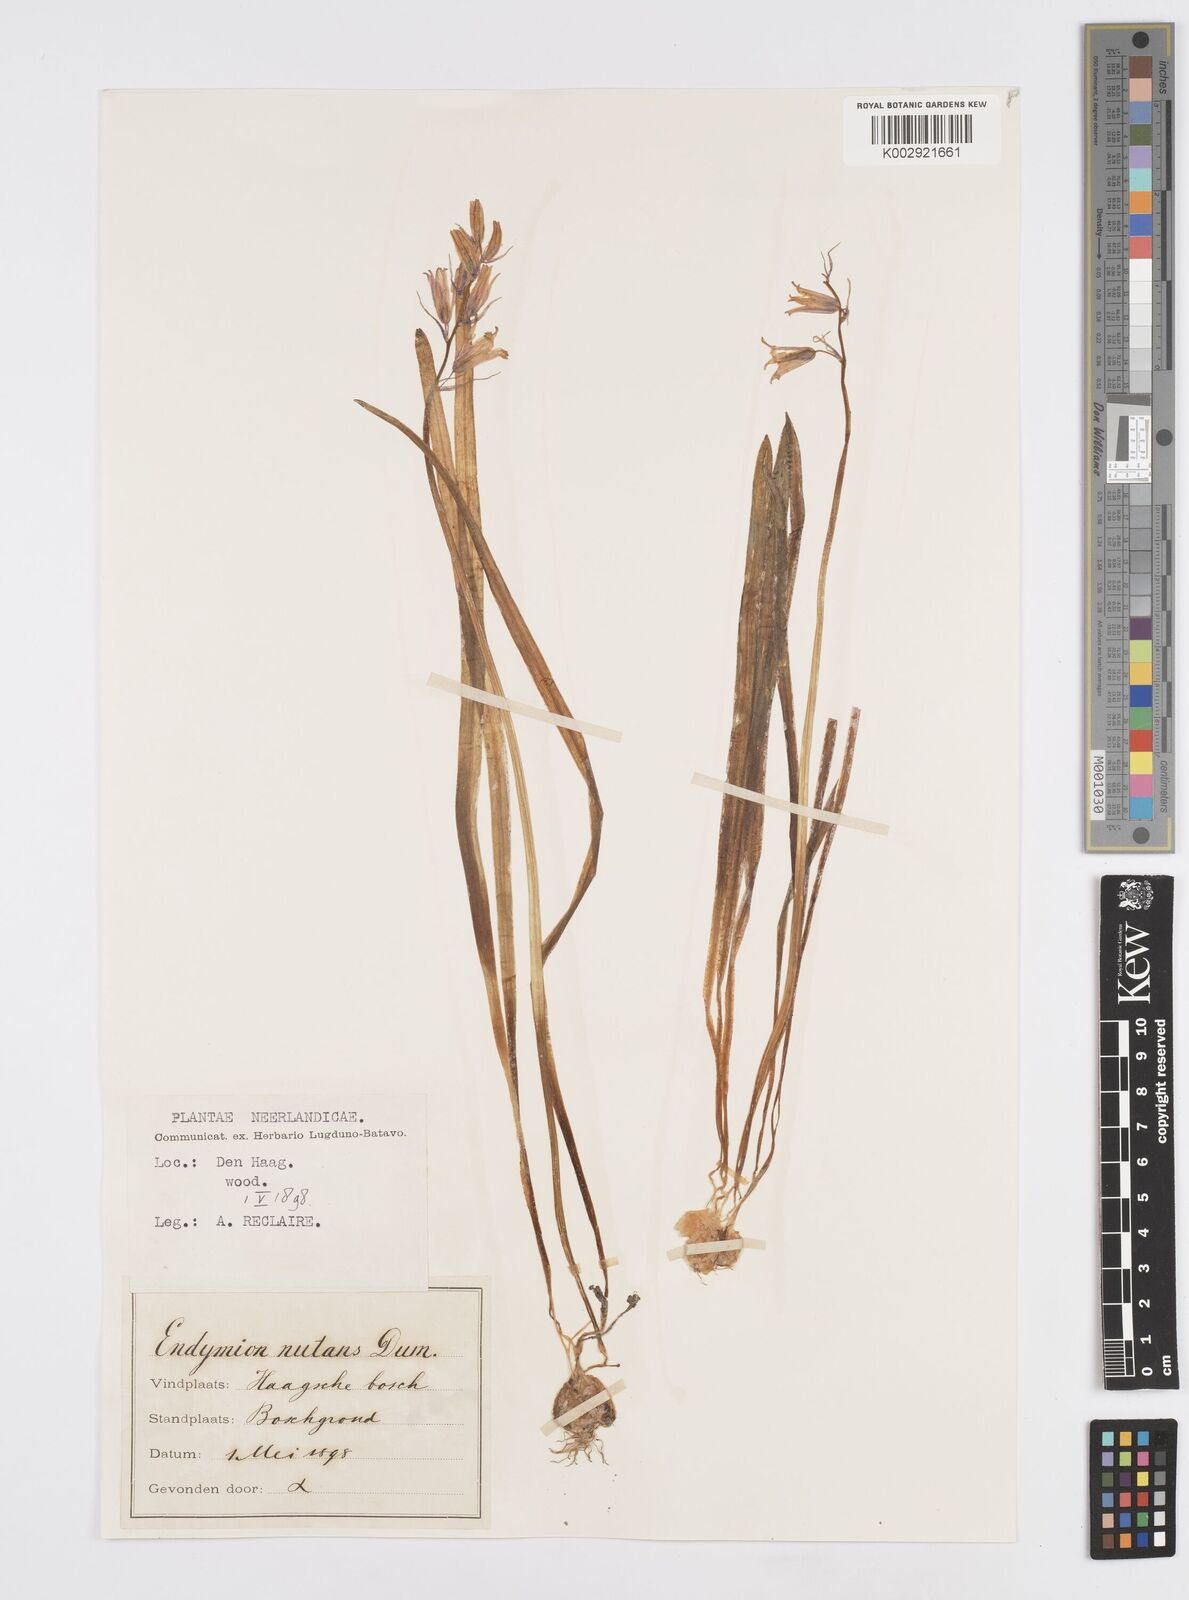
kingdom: Plantae
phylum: Tracheophyta
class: Liliopsida
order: Asparagales
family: Asparagaceae
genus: Hyacinthoides
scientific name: Hyacinthoides non-scripta
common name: Bluebell
